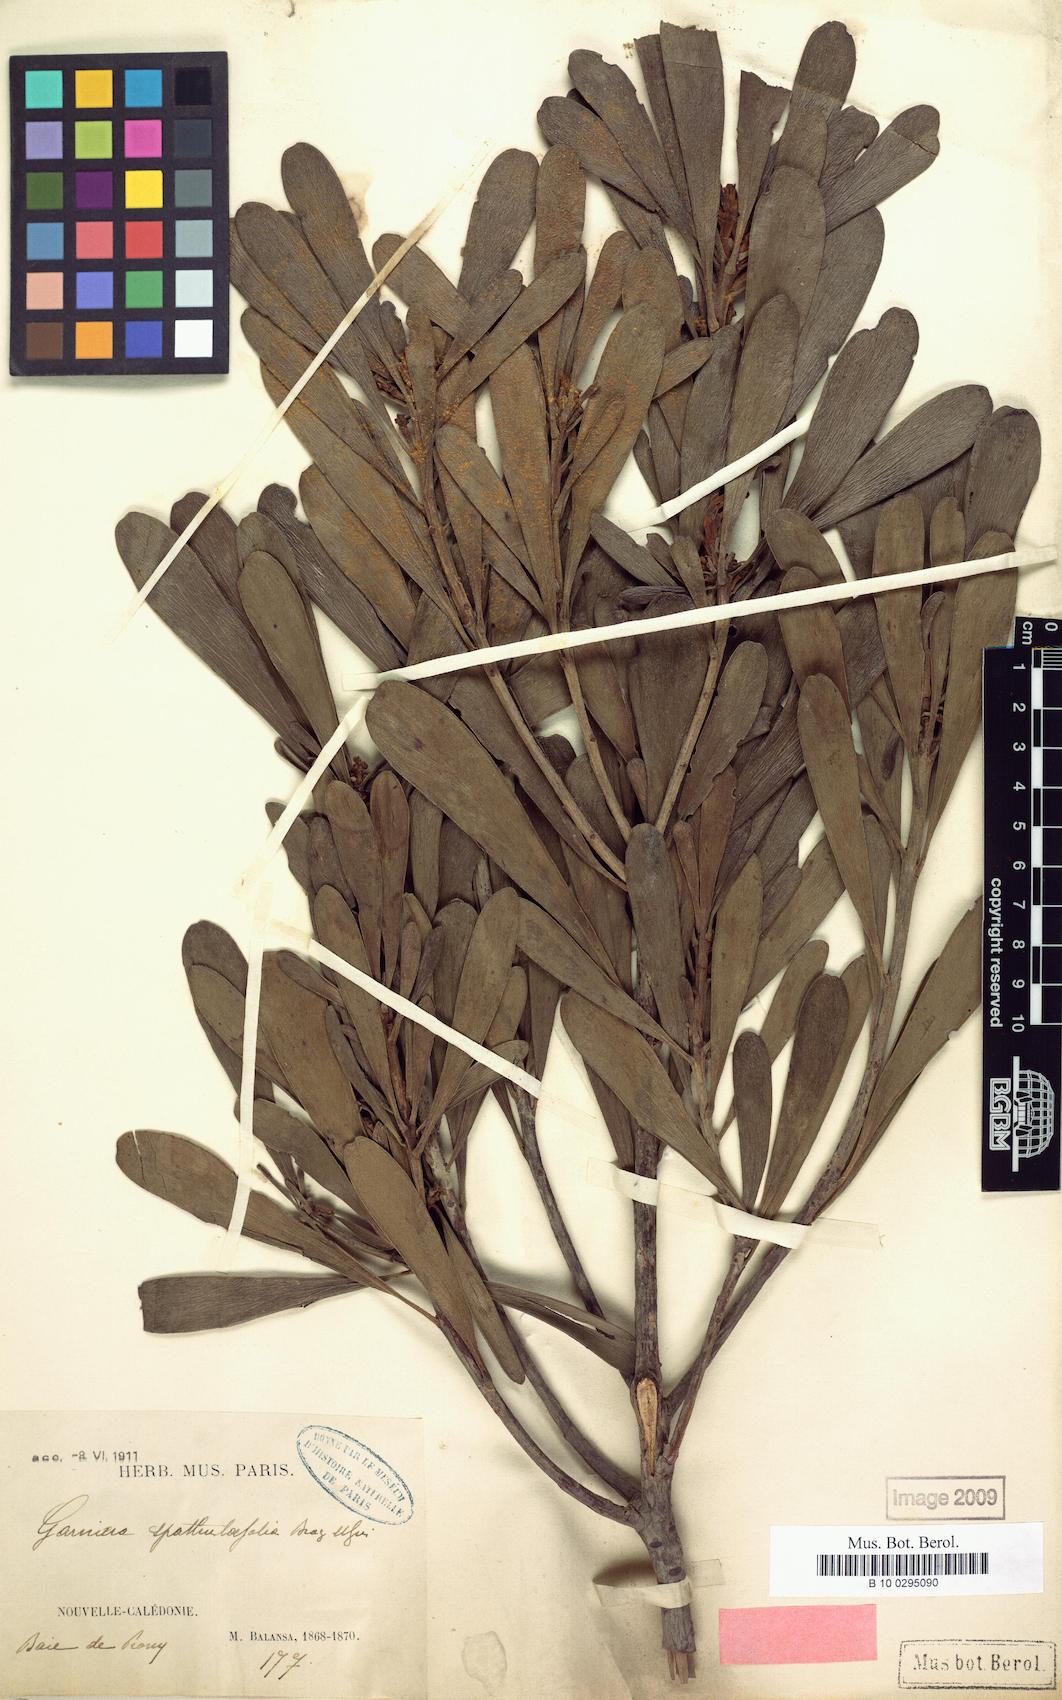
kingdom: Plantae
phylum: Tracheophyta
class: Magnoliopsida
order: Proteales
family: Proteaceae
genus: Garnieria
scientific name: Garnieria spathulifolia
